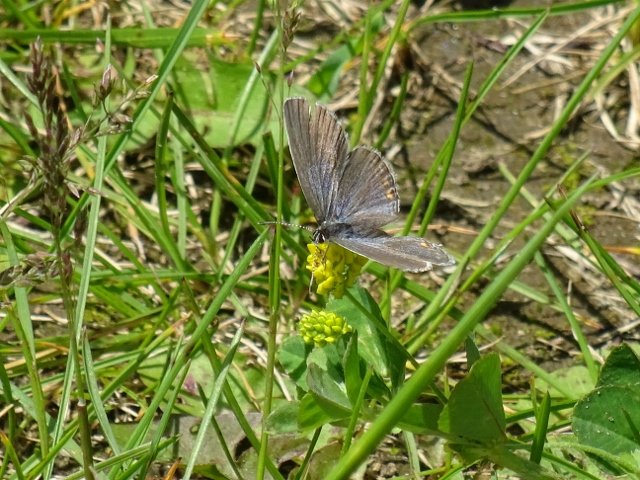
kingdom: Animalia
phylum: Arthropoda
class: Insecta
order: Lepidoptera
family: Lycaenidae
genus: Elkalyce
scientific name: Elkalyce comyntas
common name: Eastern Tailed-Blue
